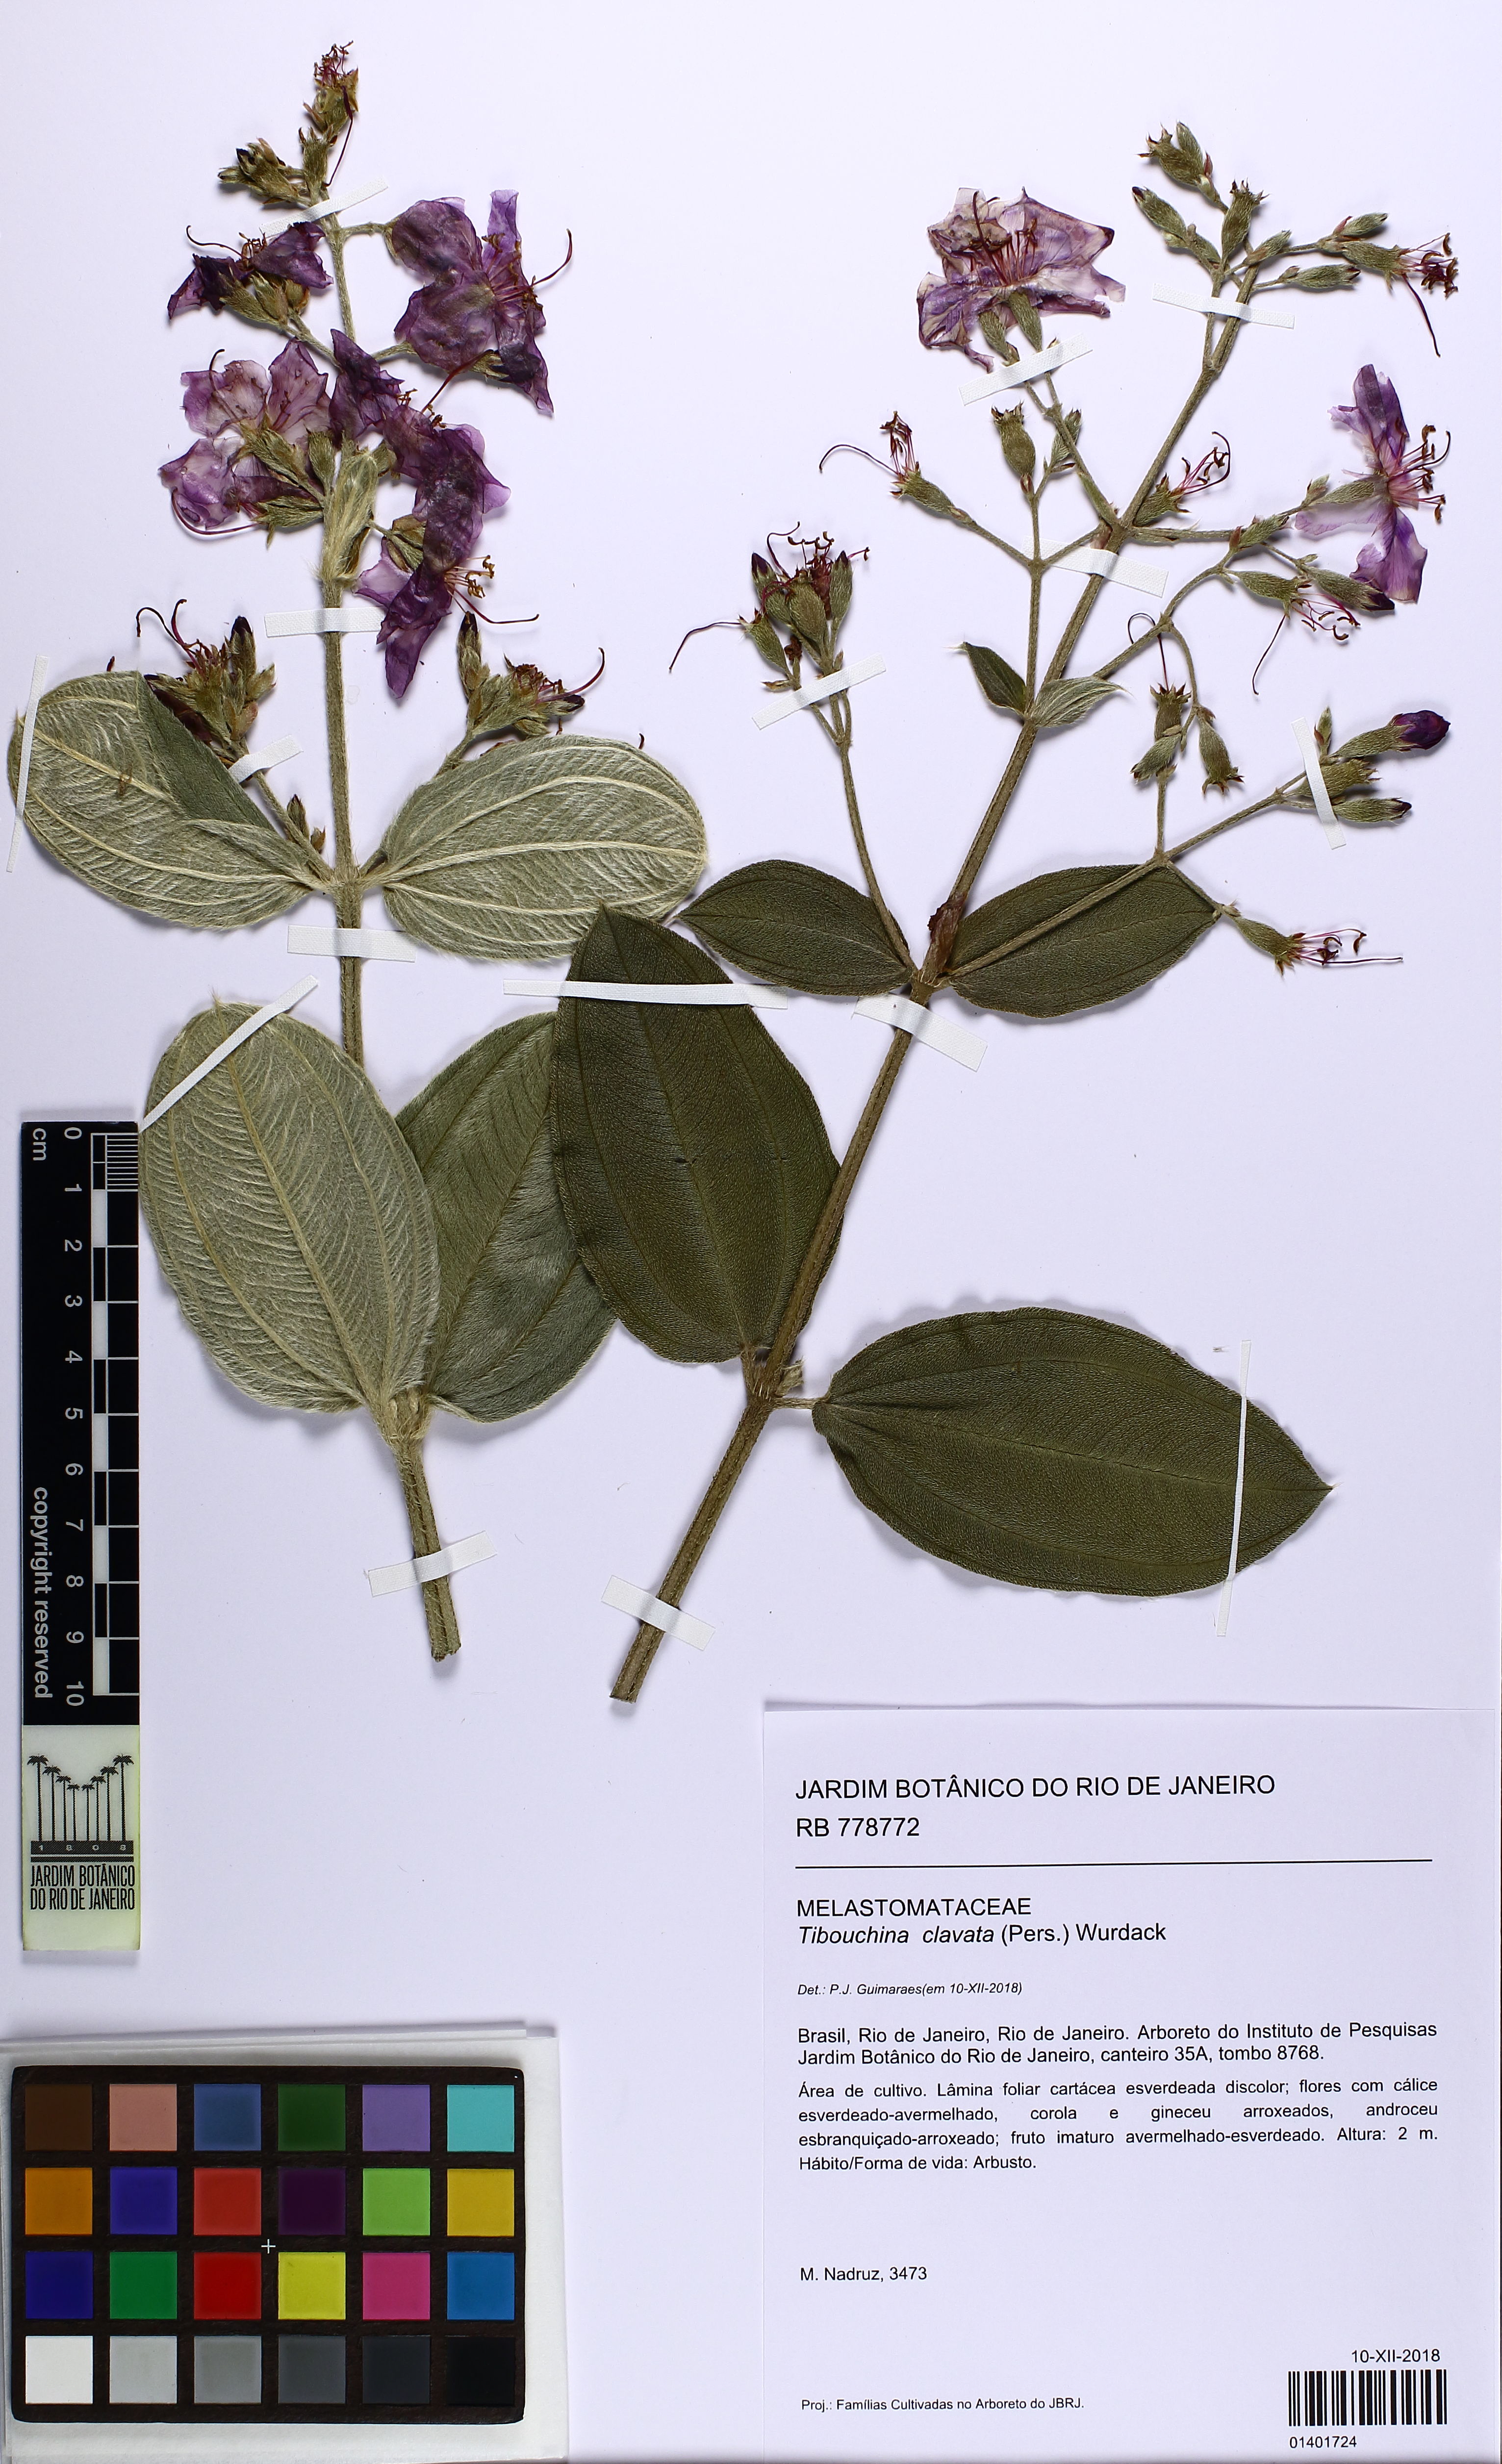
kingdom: Plantae
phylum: Tracheophyta
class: Magnoliopsida
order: Myrtales
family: Melastomataceae
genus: Pleroma
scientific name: Pleroma clavatum
